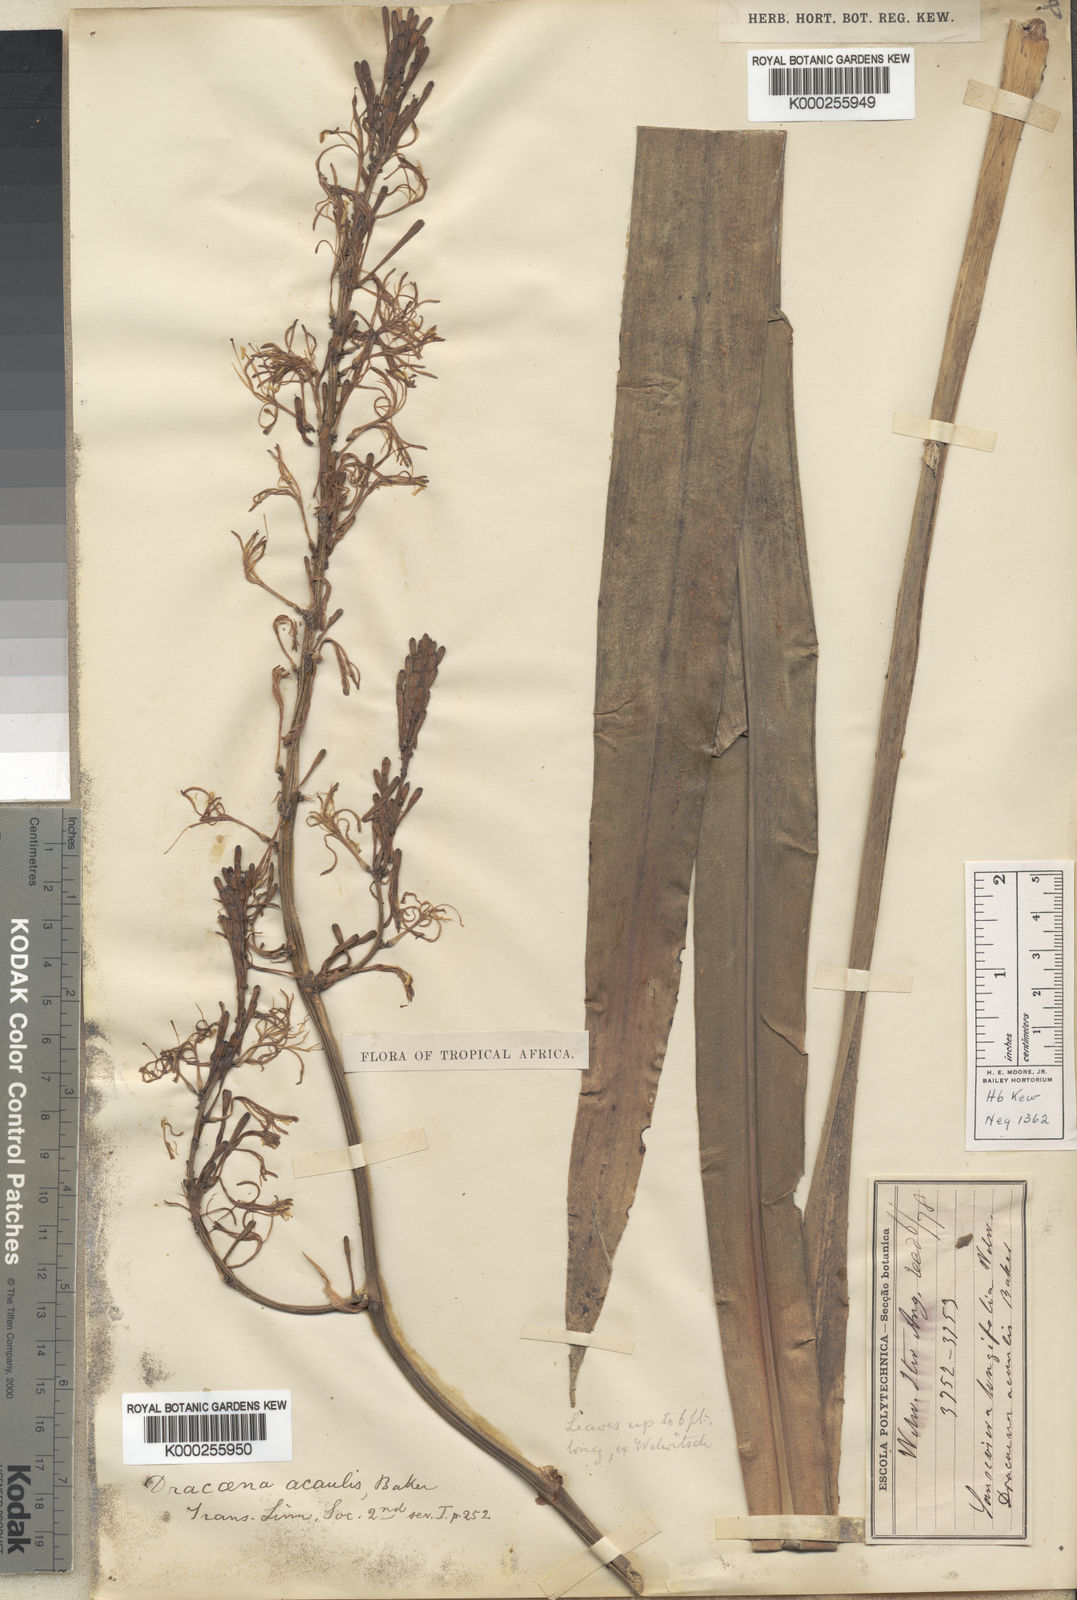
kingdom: Plantae
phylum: Tracheophyta
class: Liliopsida
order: Asparagales
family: Asparagaceae
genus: Dracaena
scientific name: Dracaena acaulis
